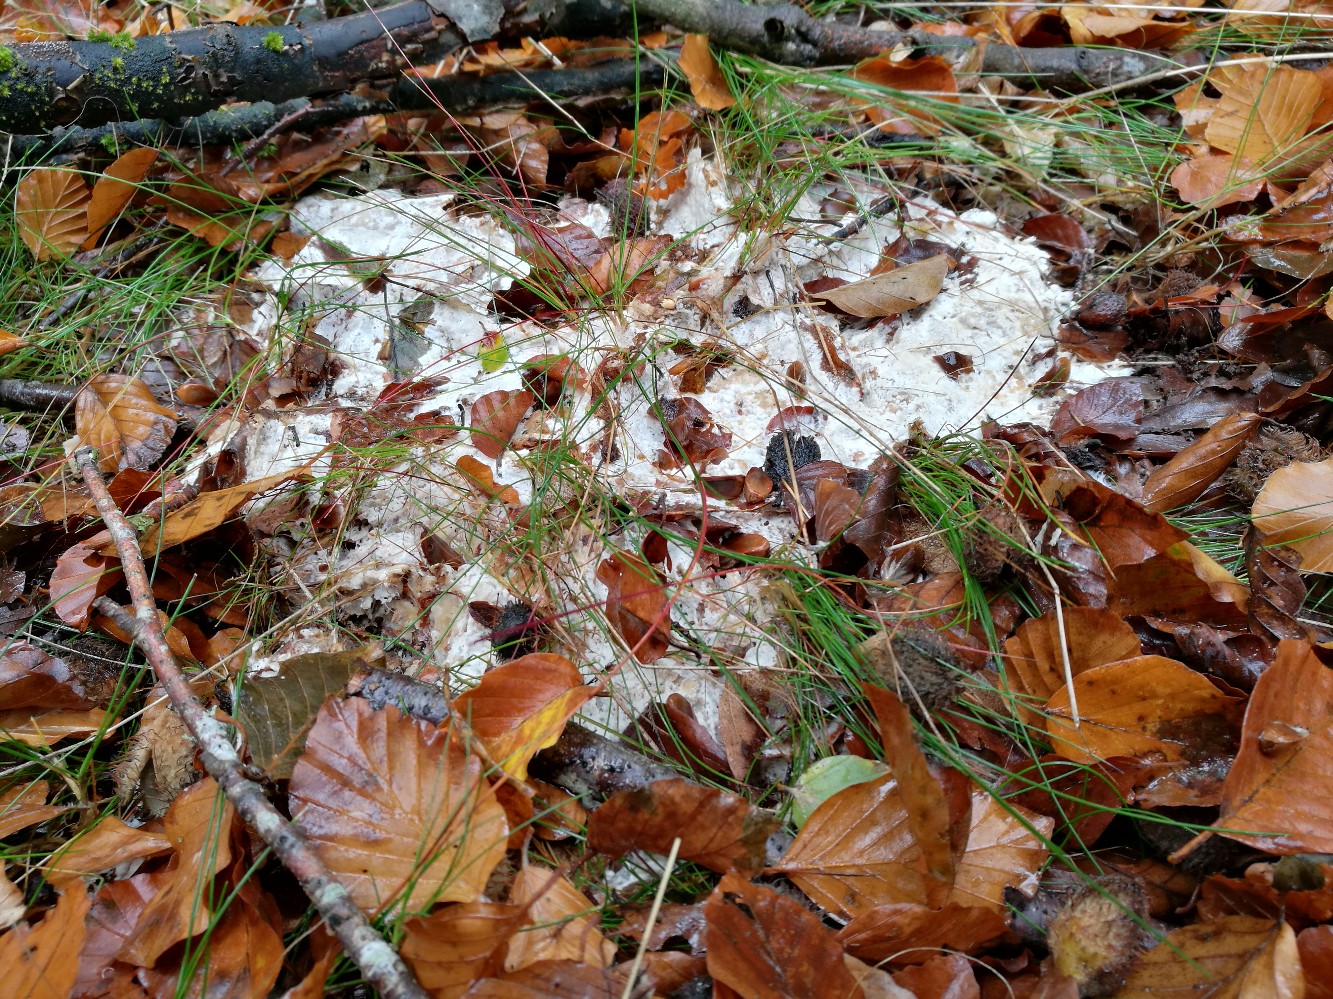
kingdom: Fungi
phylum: Basidiomycota
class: Agaricomycetes
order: Polyporales
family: Phanerochaetaceae
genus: Phanerochaete
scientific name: Phanerochaete velutina
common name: dunet randtråd
